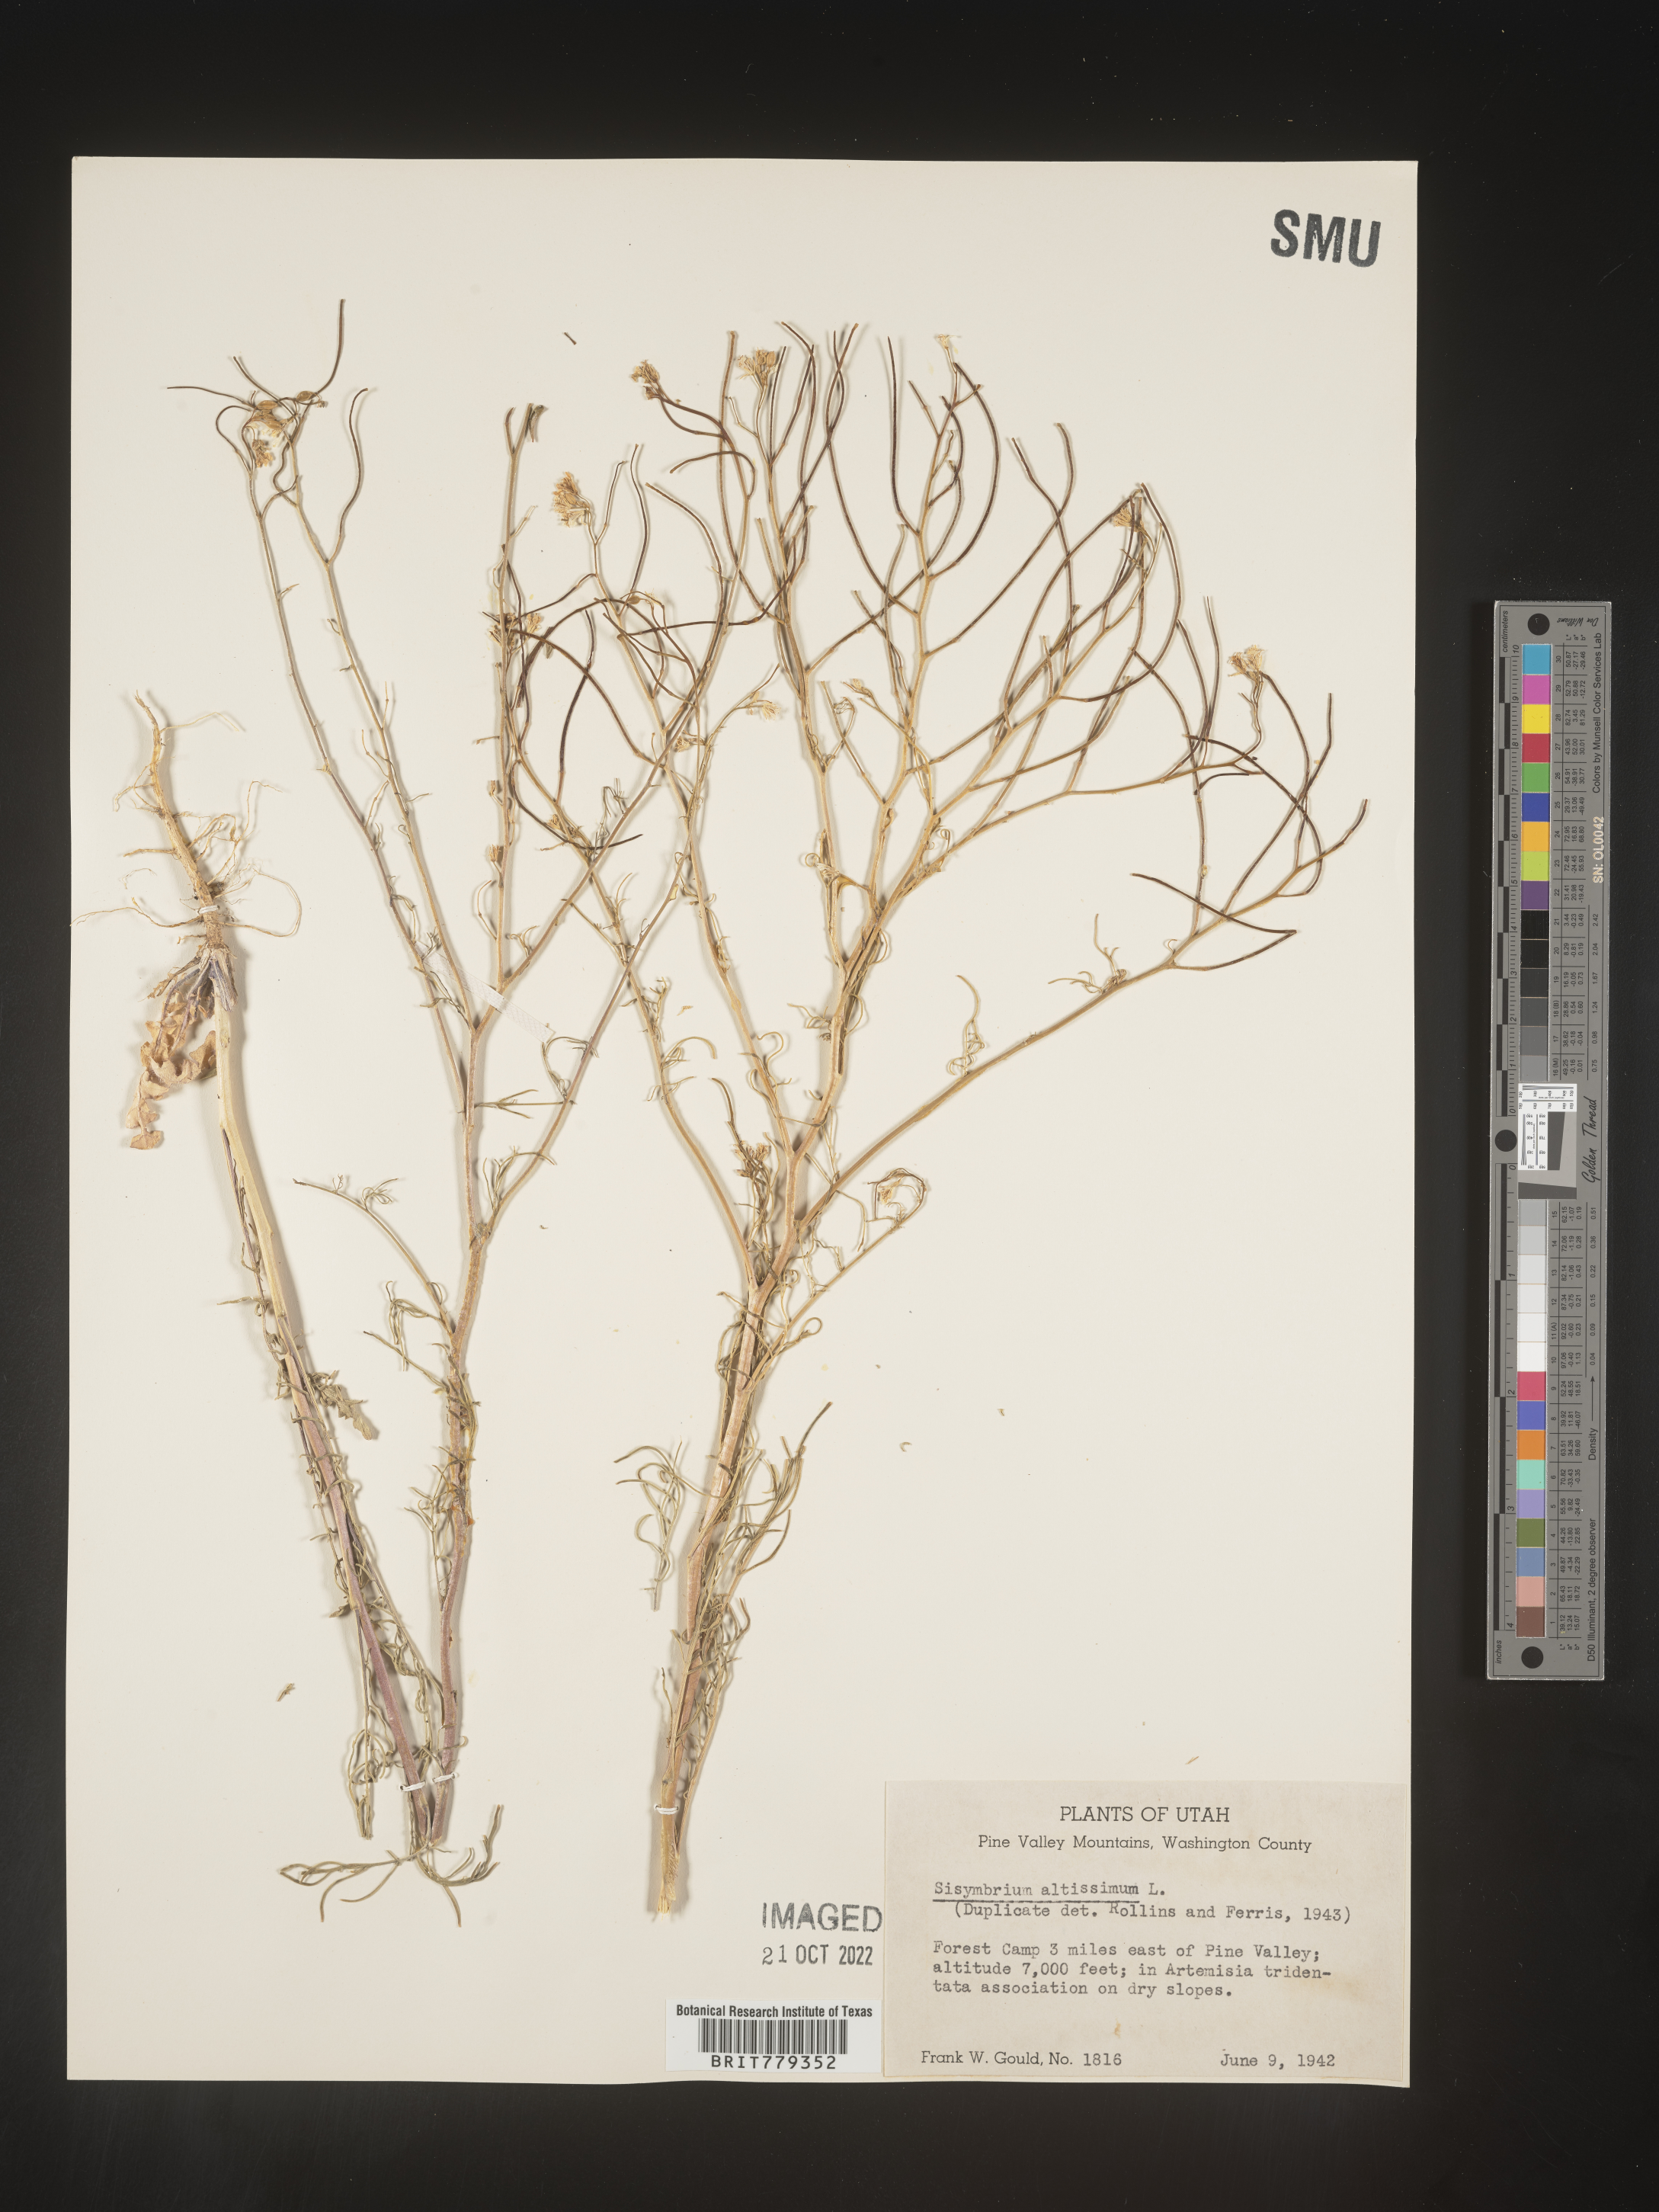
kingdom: Plantae
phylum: Tracheophyta
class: Magnoliopsida
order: Brassicales
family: Brassicaceae
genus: Sisymbrium
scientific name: Sisymbrium altissimum
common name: Tall rocket
